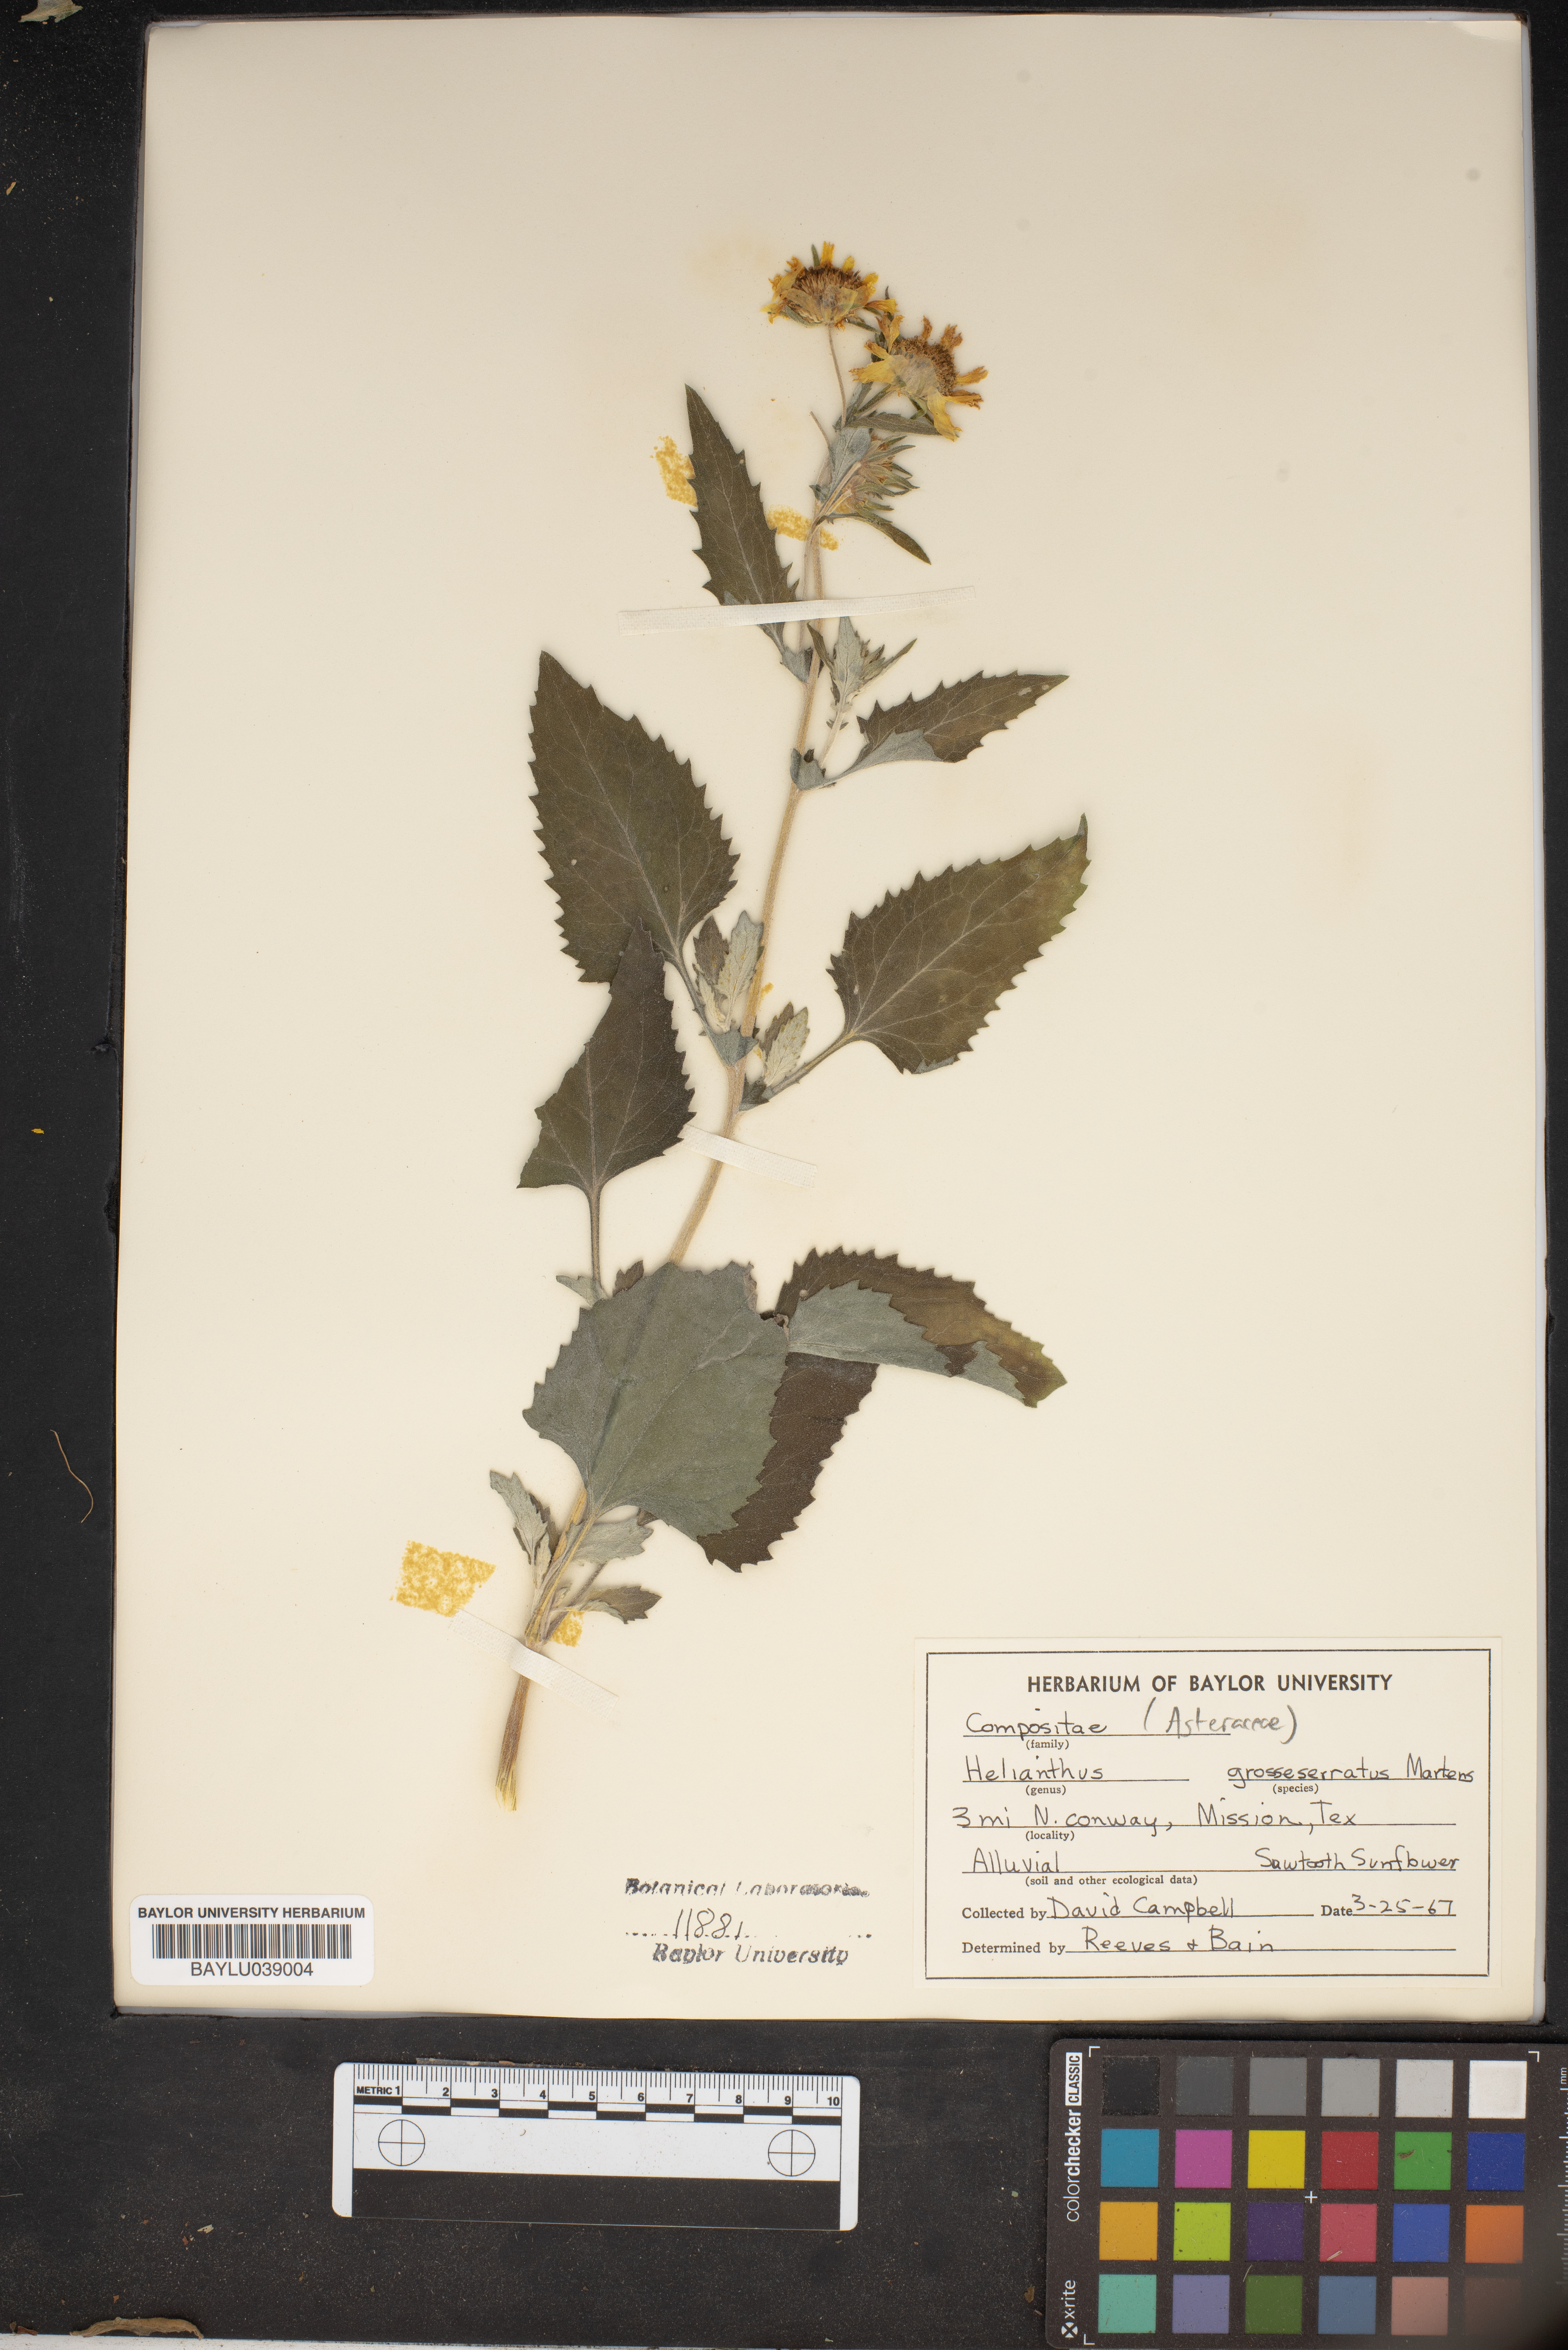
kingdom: Plantae
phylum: Tracheophyta
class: Magnoliopsida
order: Asterales
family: Asteraceae
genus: Helianthus
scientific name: Helianthus grosseserratus
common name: Sawtooth sunflower
